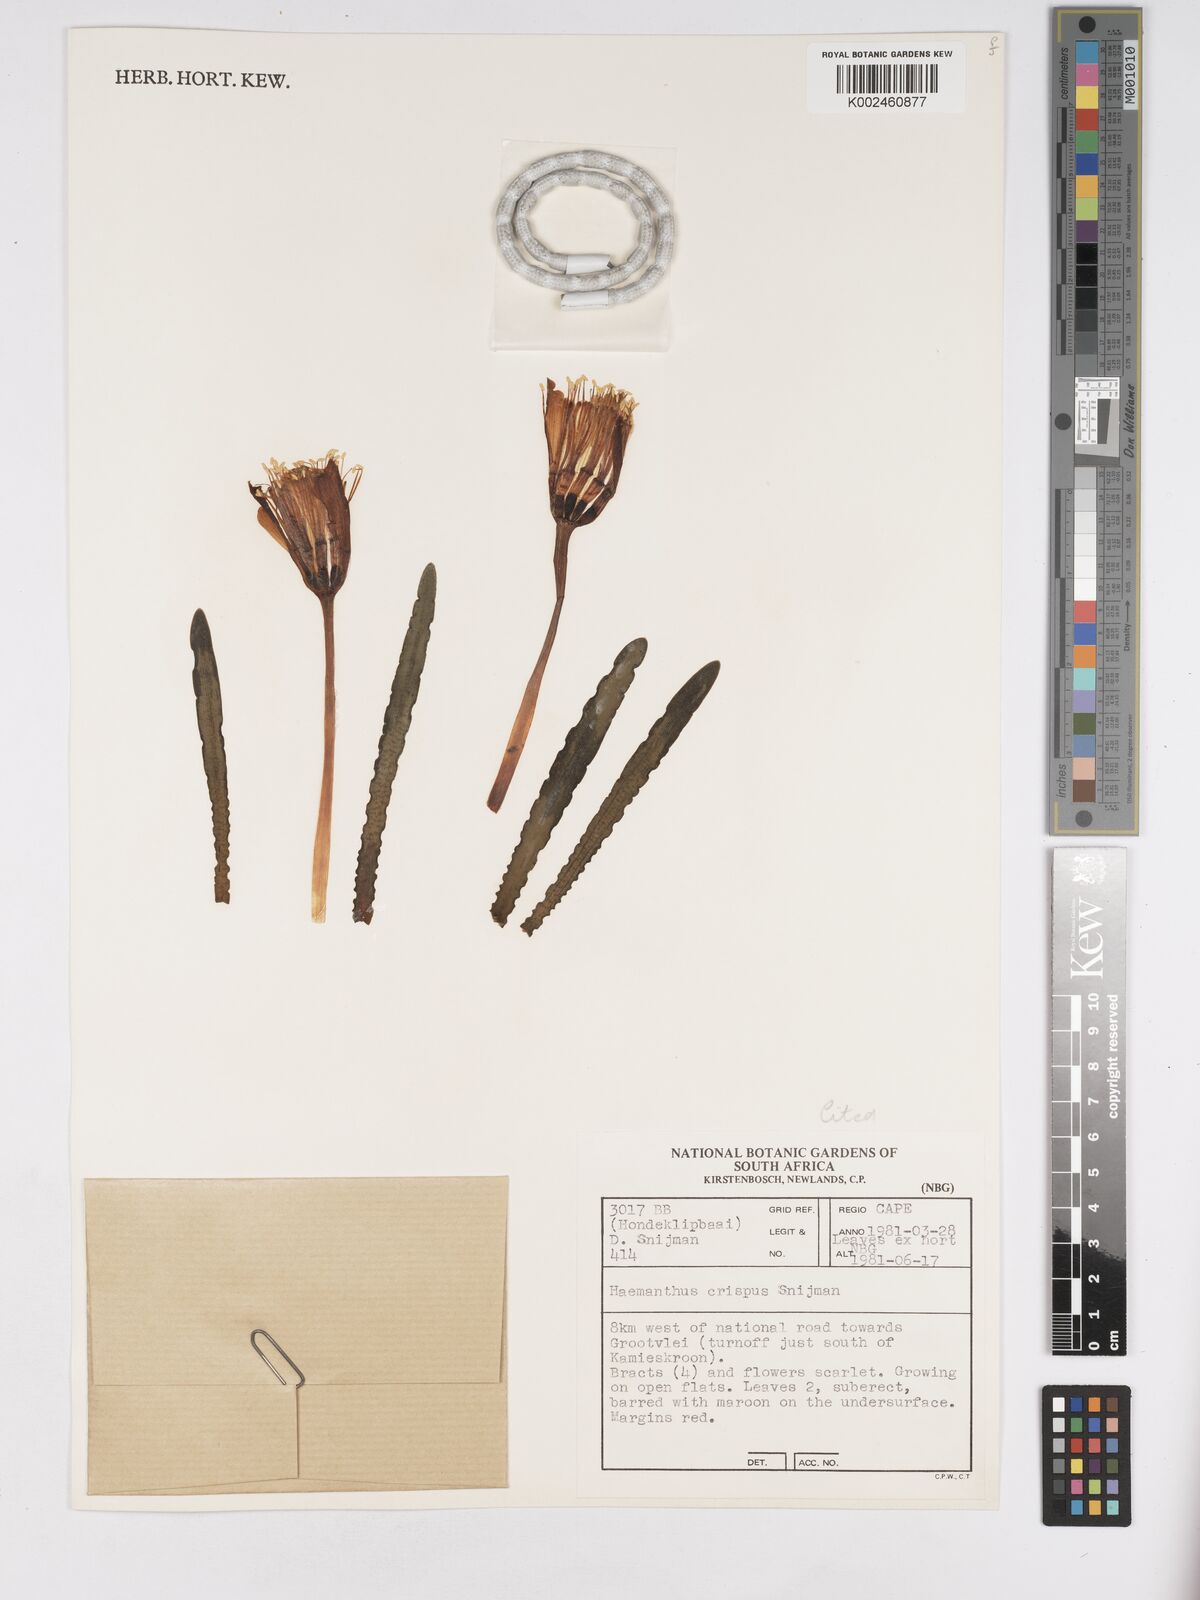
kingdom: Plantae
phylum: Tracheophyta
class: Liliopsida
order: Asparagales
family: Amaryllidaceae
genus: Haemanthus
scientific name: Haemanthus crispus
